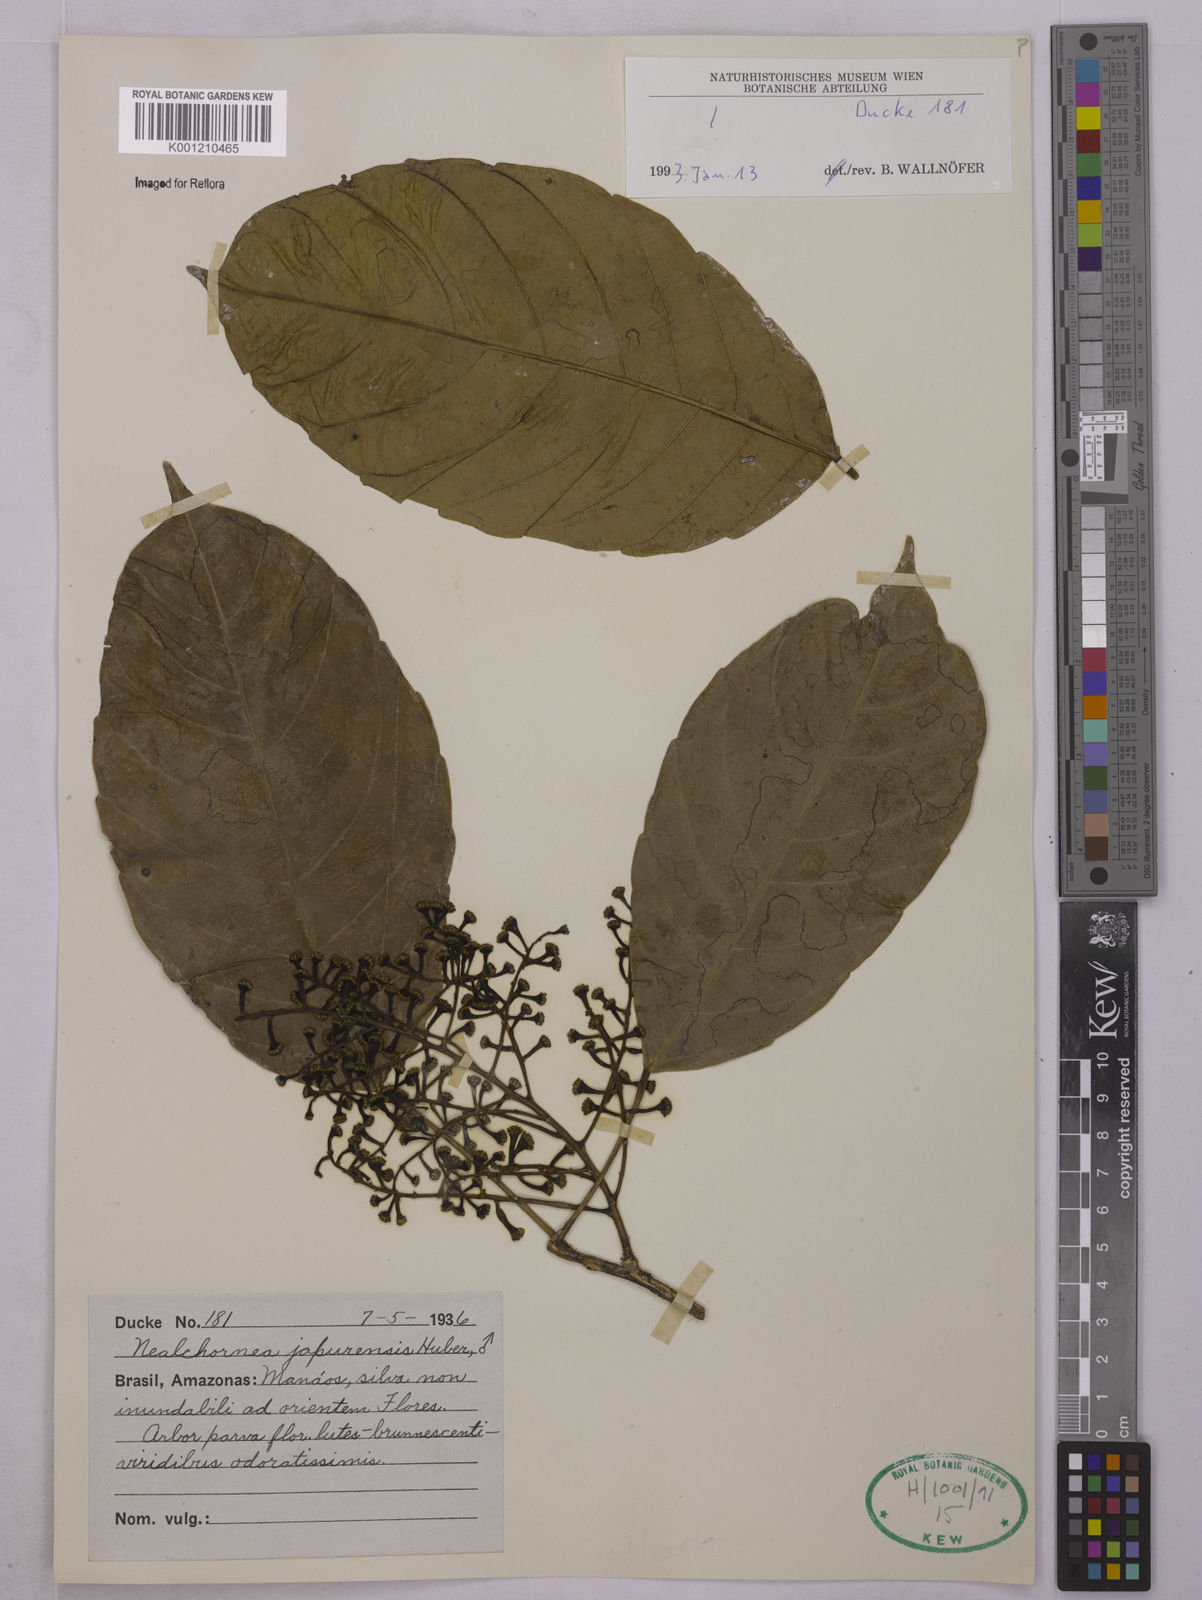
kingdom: Plantae
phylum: Tracheophyta
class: Magnoliopsida
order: Malpighiales
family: Euphorbiaceae
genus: Nealchornea
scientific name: Nealchornea yapurensis
